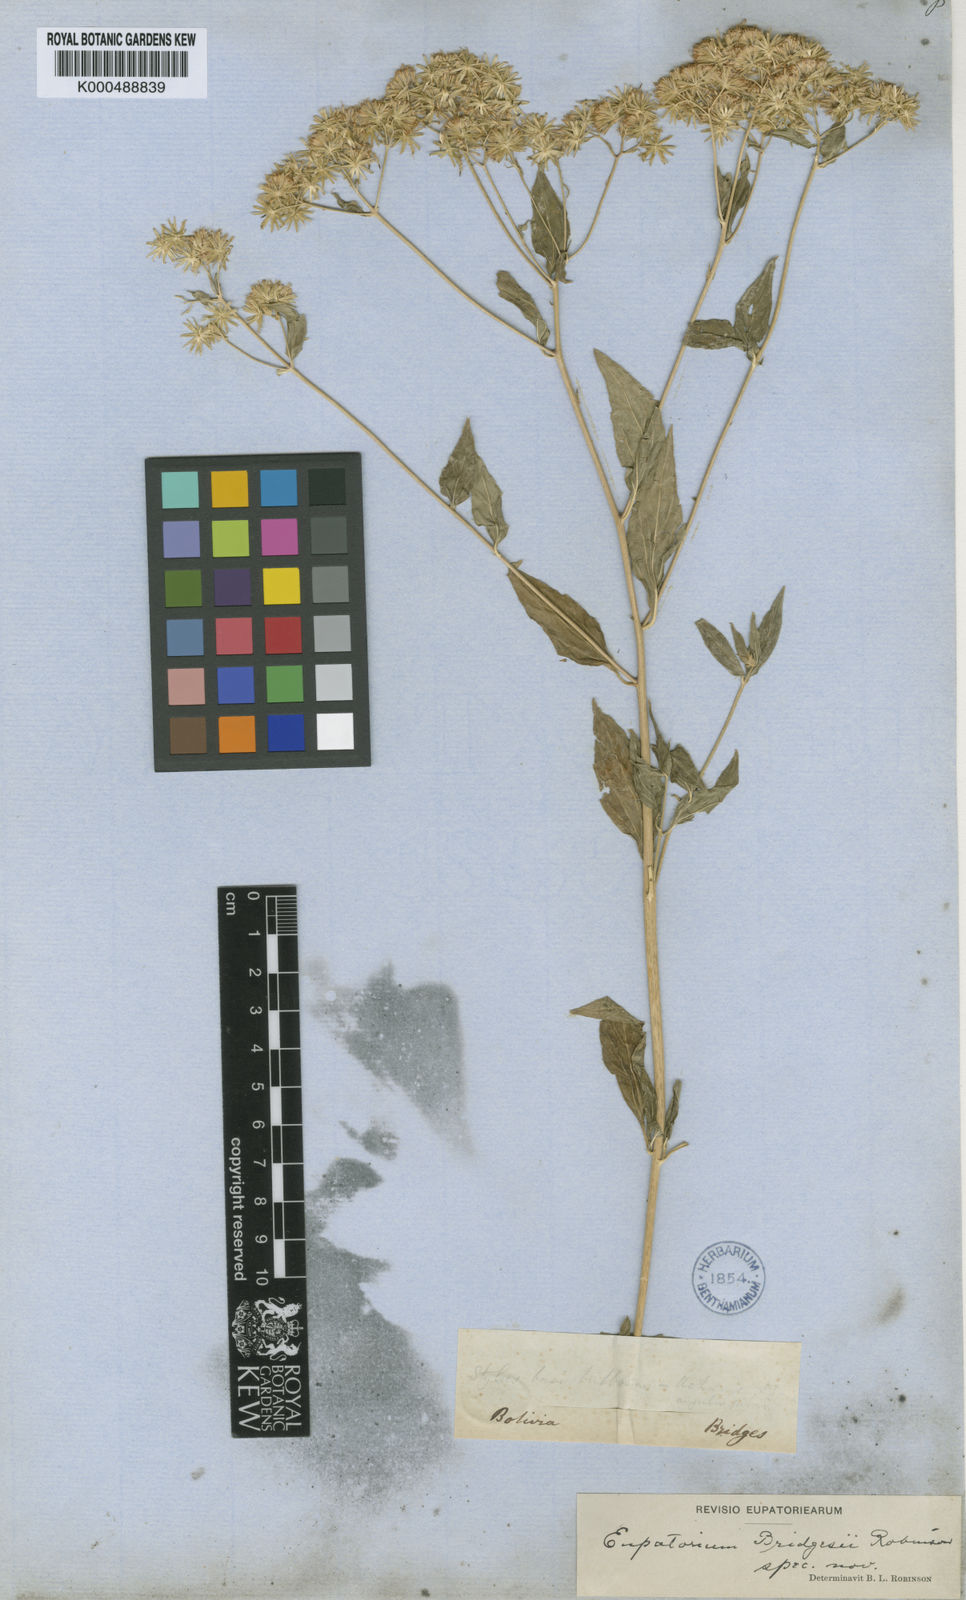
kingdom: Plantae
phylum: Tracheophyta
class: Magnoliopsida
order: Asterales
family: Asteraceae
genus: Fleischmannia
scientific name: Fleischmannia bridgesii
